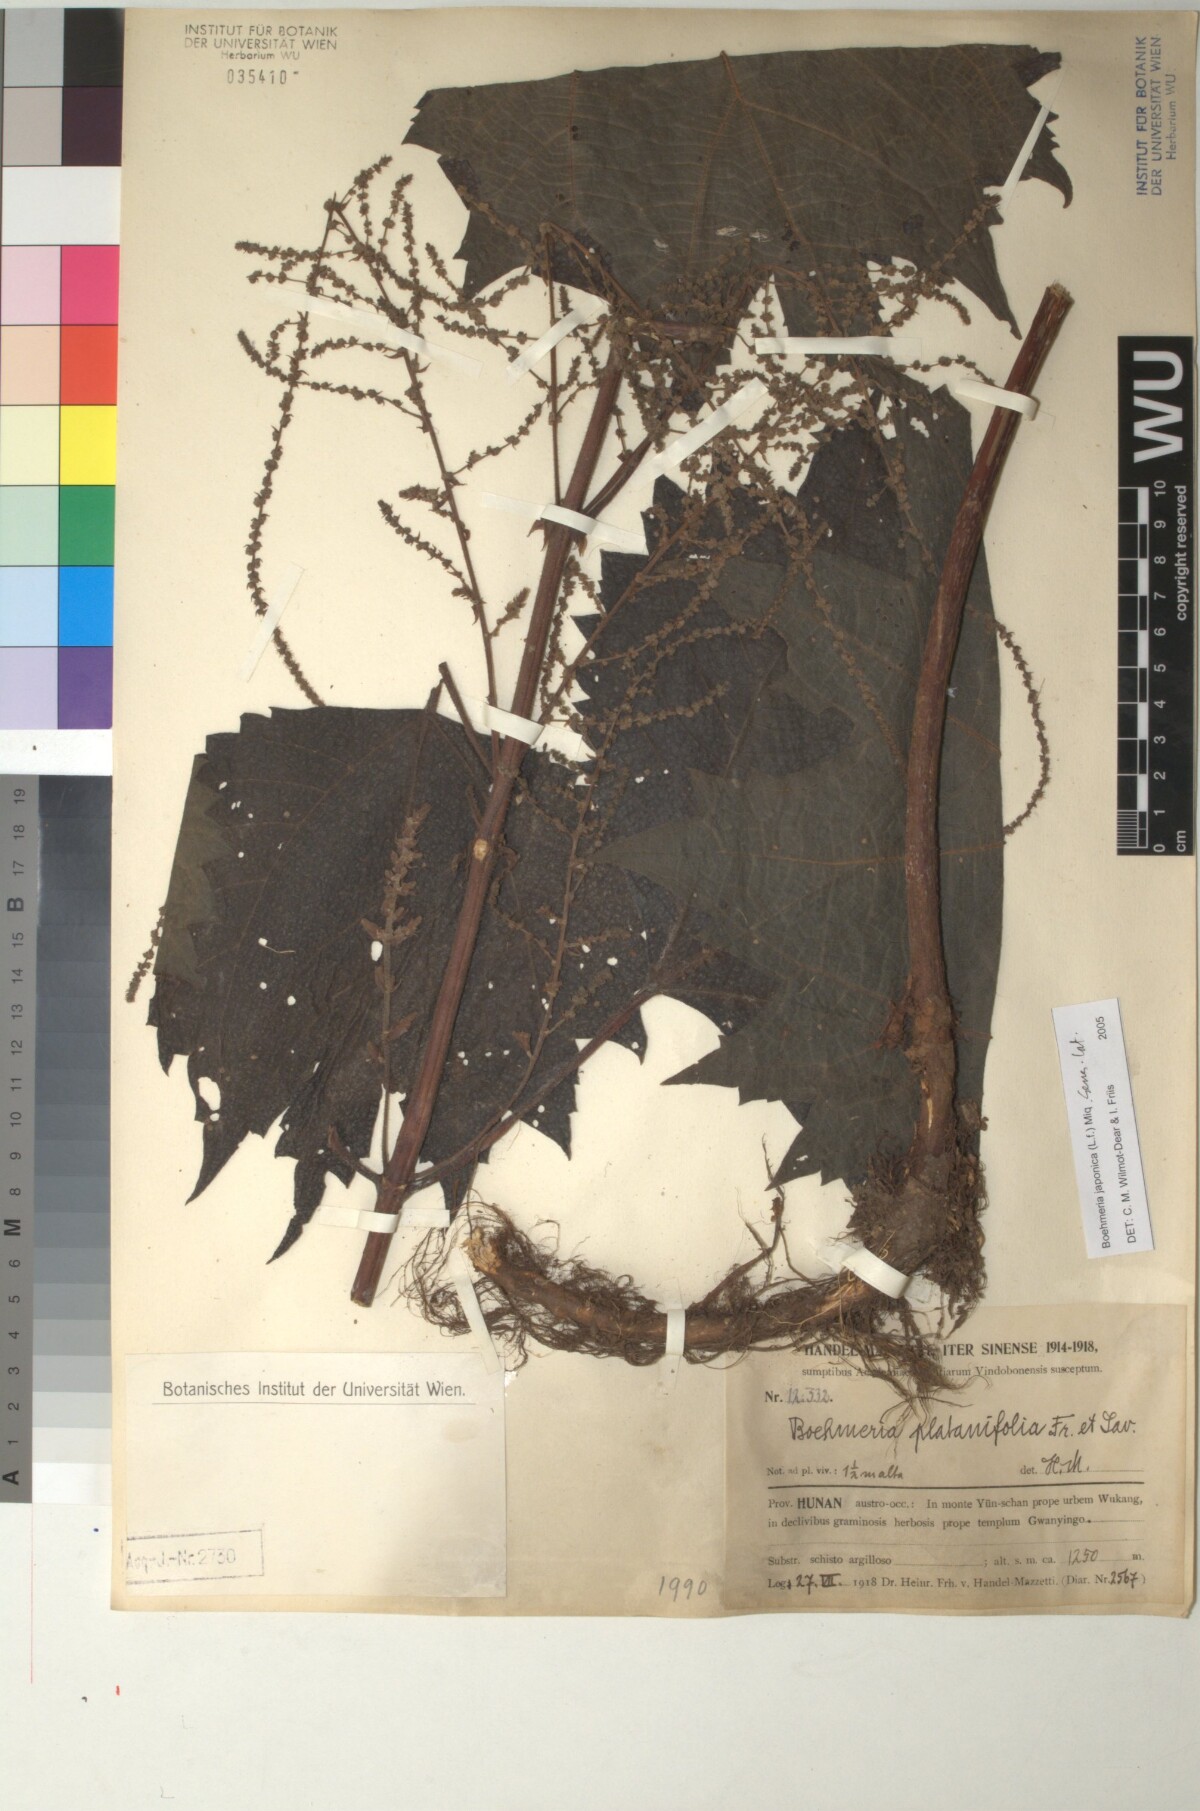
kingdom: Plantae
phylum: Tracheophyta
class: Magnoliopsida
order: Rosales
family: Urticaceae
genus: Boehmeria
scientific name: Boehmeria japonica
